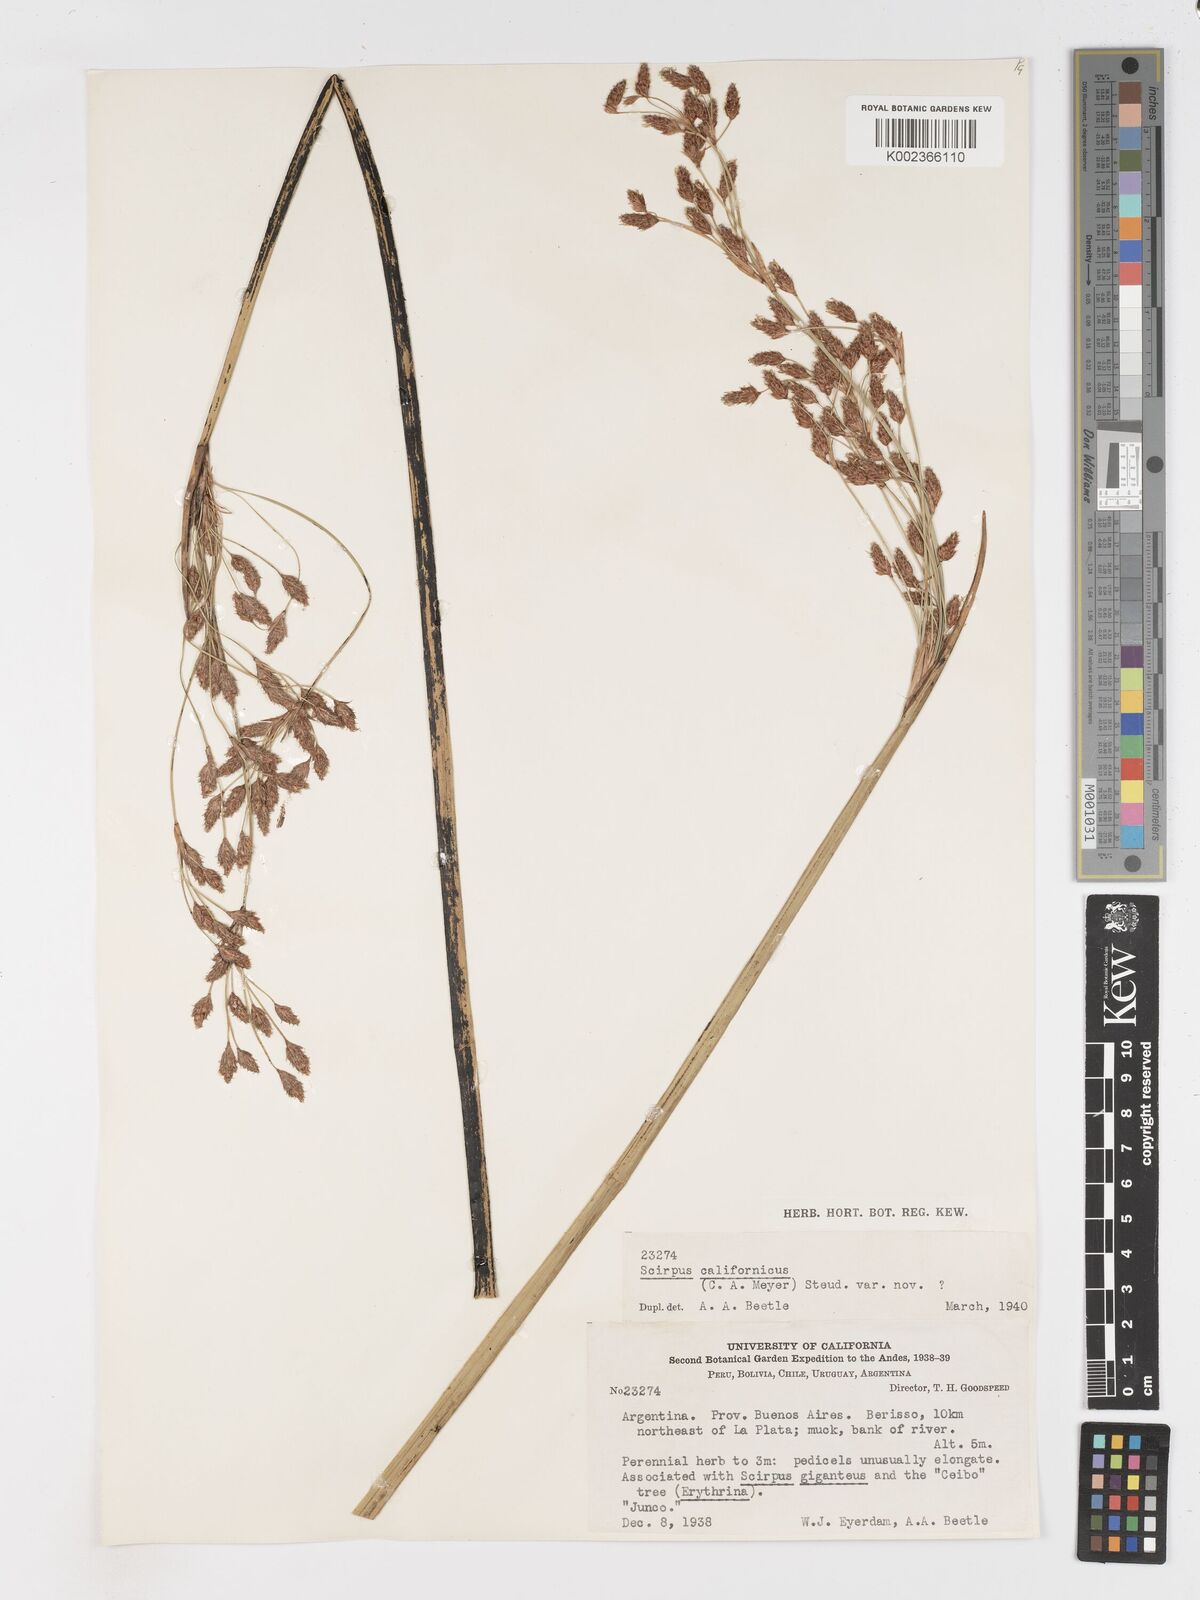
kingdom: Plantae
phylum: Tracheophyta
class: Liliopsida
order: Poales
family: Cyperaceae
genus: Schoenoplectus
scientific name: Schoenoplectus californicus
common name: California bulrush
